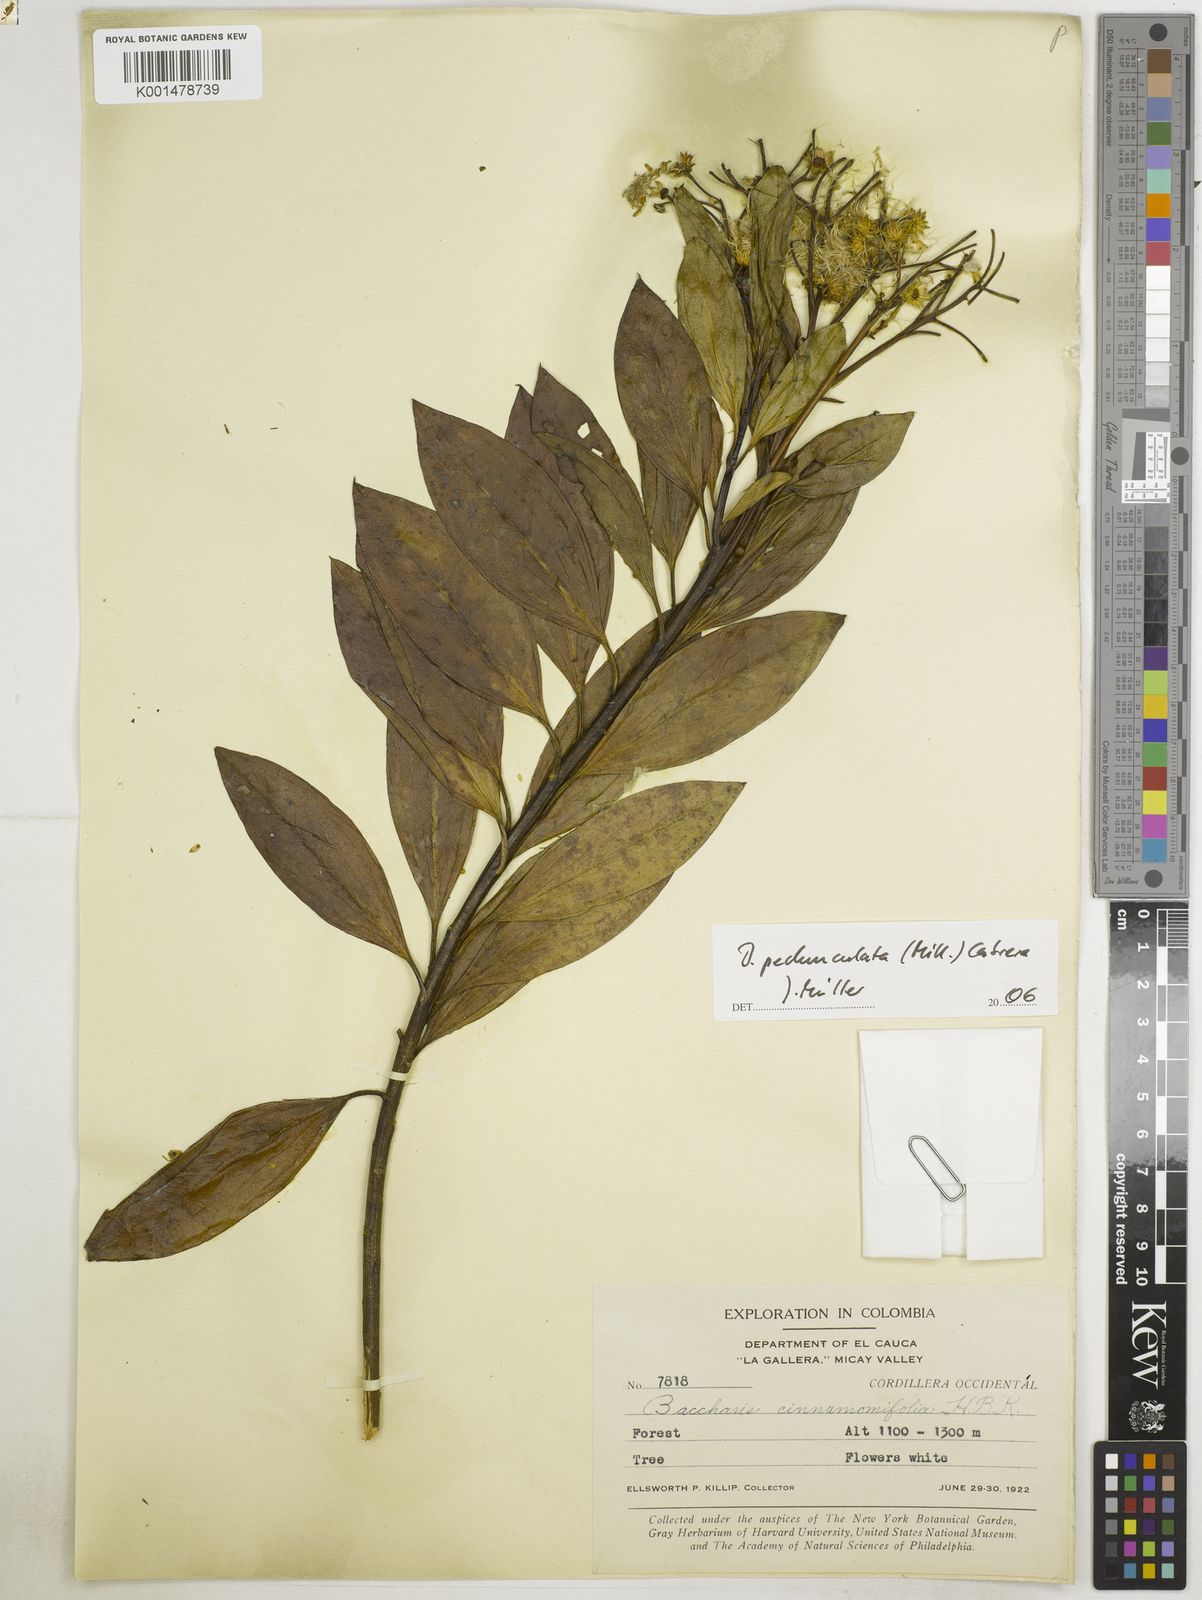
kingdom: Plantae
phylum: Tracheophyta
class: Magnoliopsida
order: Asterales
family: Asteraceae
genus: Baccharis
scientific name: Baccharis pedunculata
